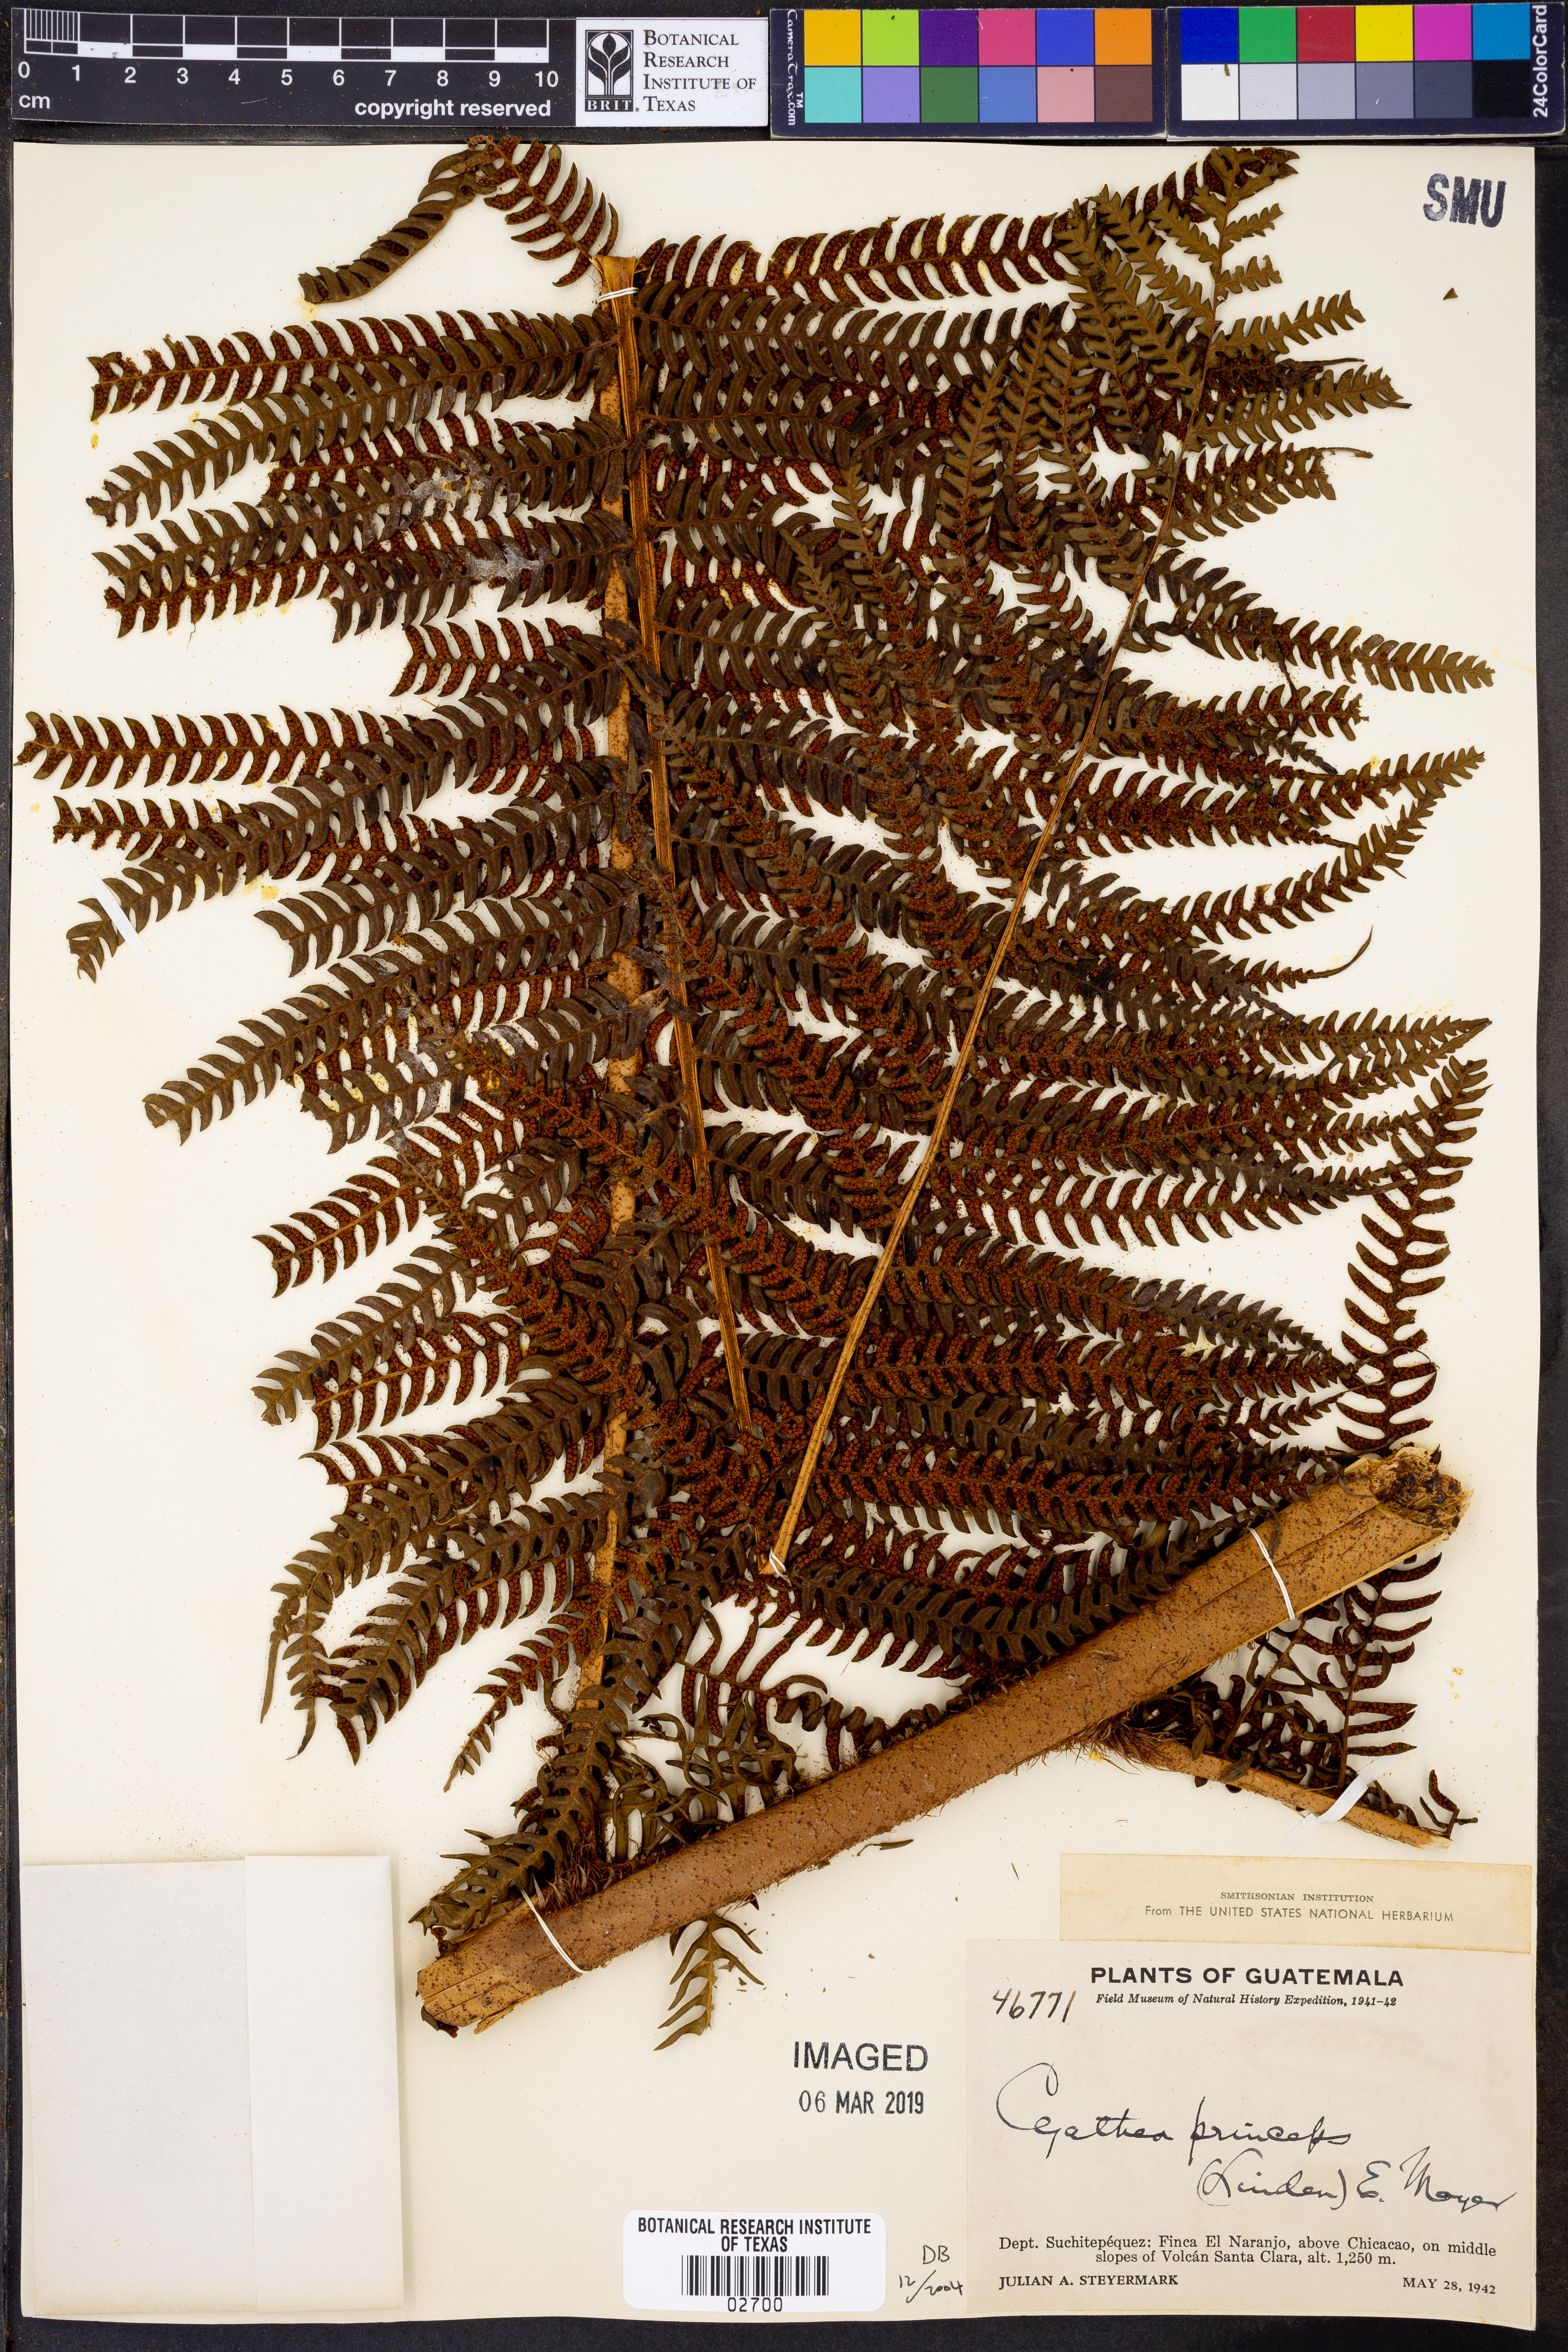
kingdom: Plantae
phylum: Tracheophyta
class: Polypodiopsida
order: Cyatheales
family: Cyatheaceae
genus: Sphaeropteris
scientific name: Sphaeropteris insignis
